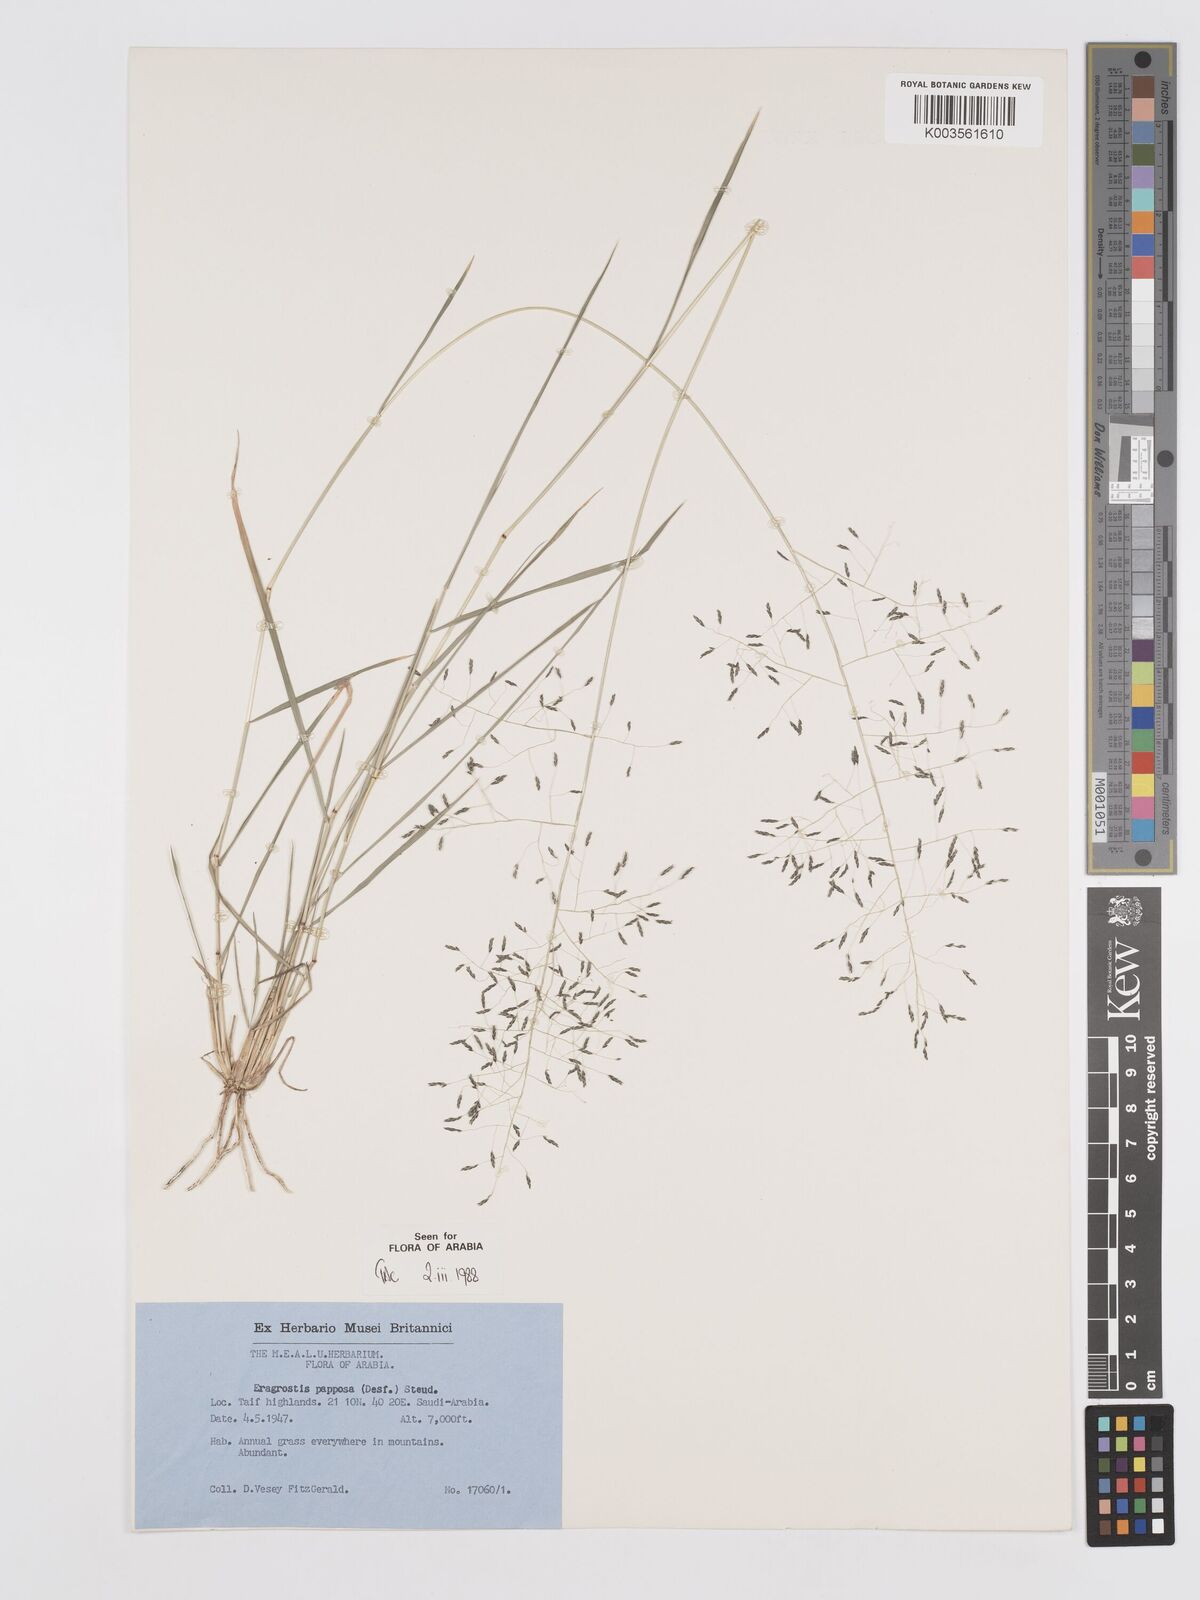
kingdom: Plantae
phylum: Tracheophyta
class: Liliopsida
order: Poales
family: Poaceae
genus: Eragrostis
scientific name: Eragrostis papposa
